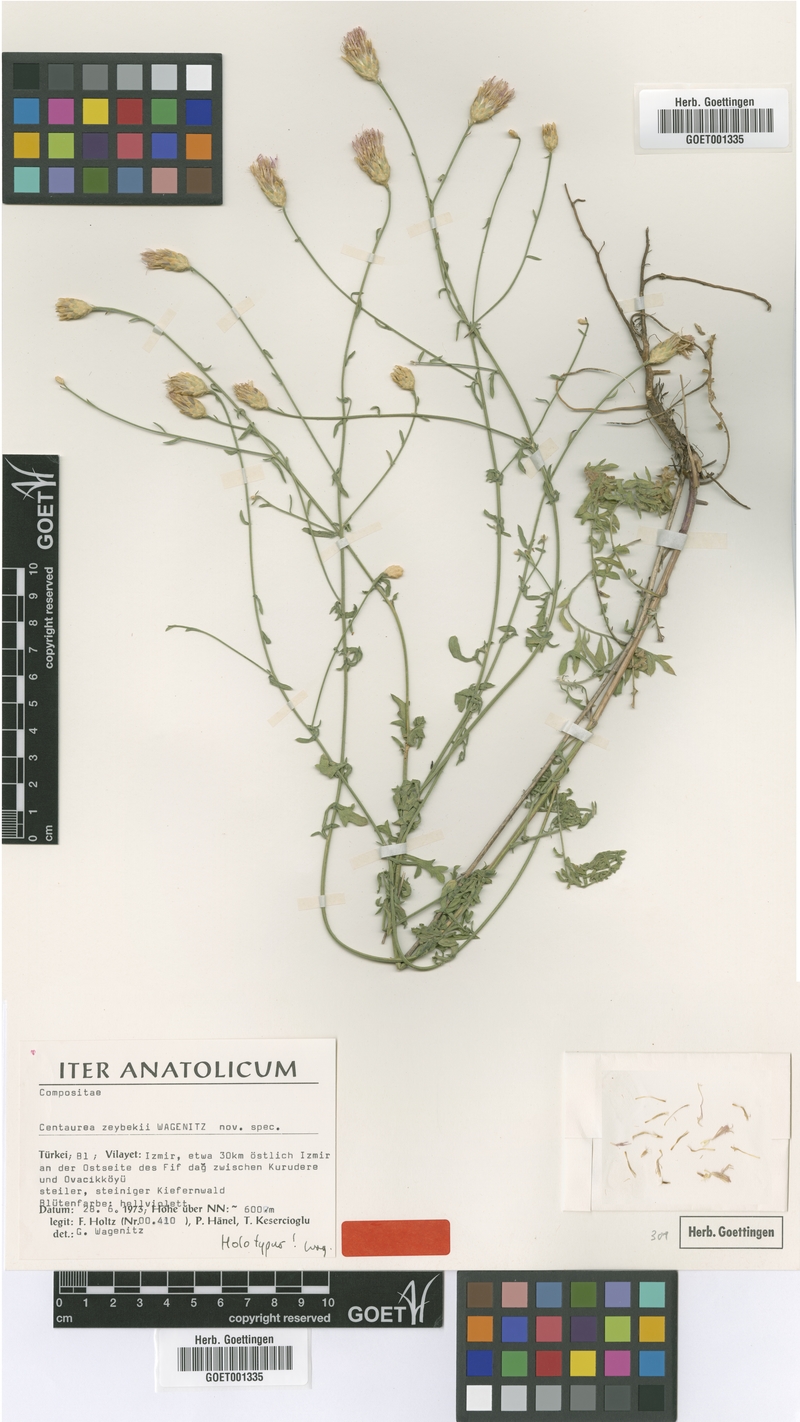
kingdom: Plantae
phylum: Tracheophyta
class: Magnoliopsida
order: Asterales
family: Asteraceae
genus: Centaurea
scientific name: Centaurea zeybekii
